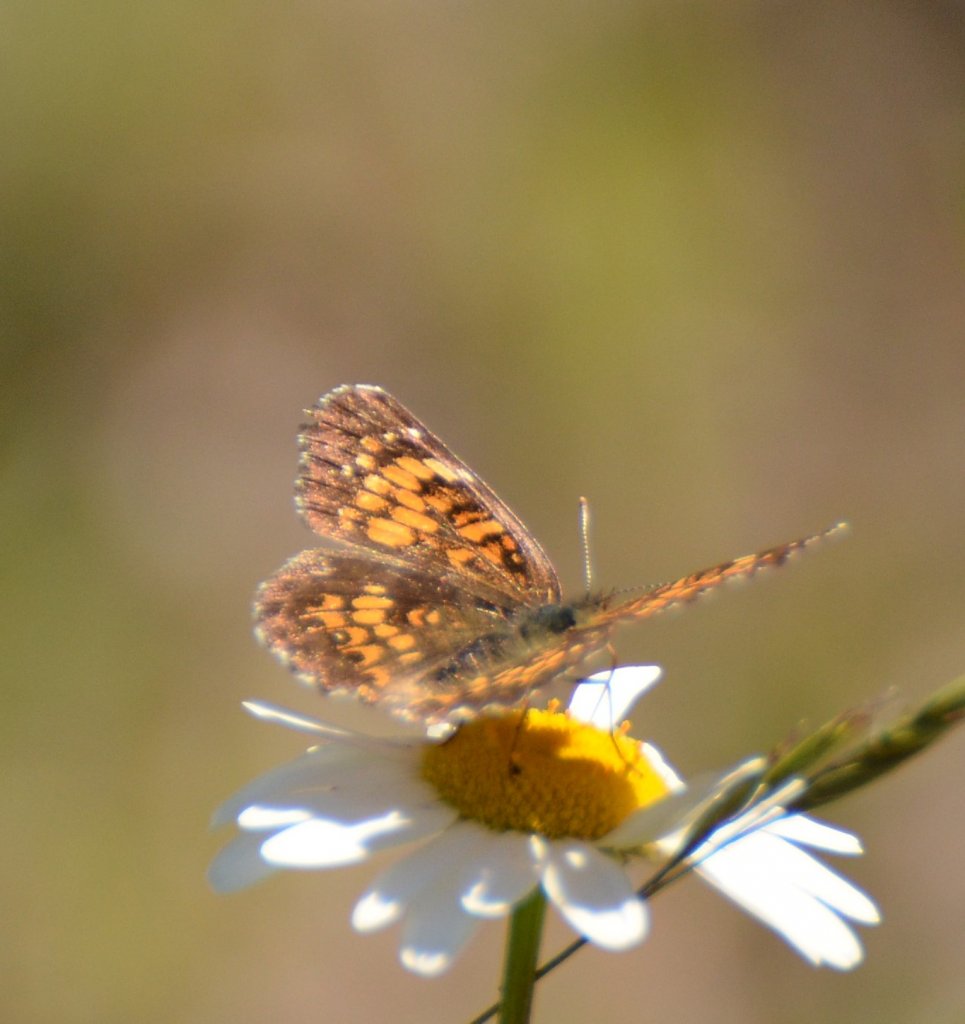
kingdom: Animalia
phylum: Arthropoda
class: Insecta
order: Lepidoptera
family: Nymphalidae
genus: Chlosyne
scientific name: Chlosyne harrisii
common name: Harris's Checkerspot
